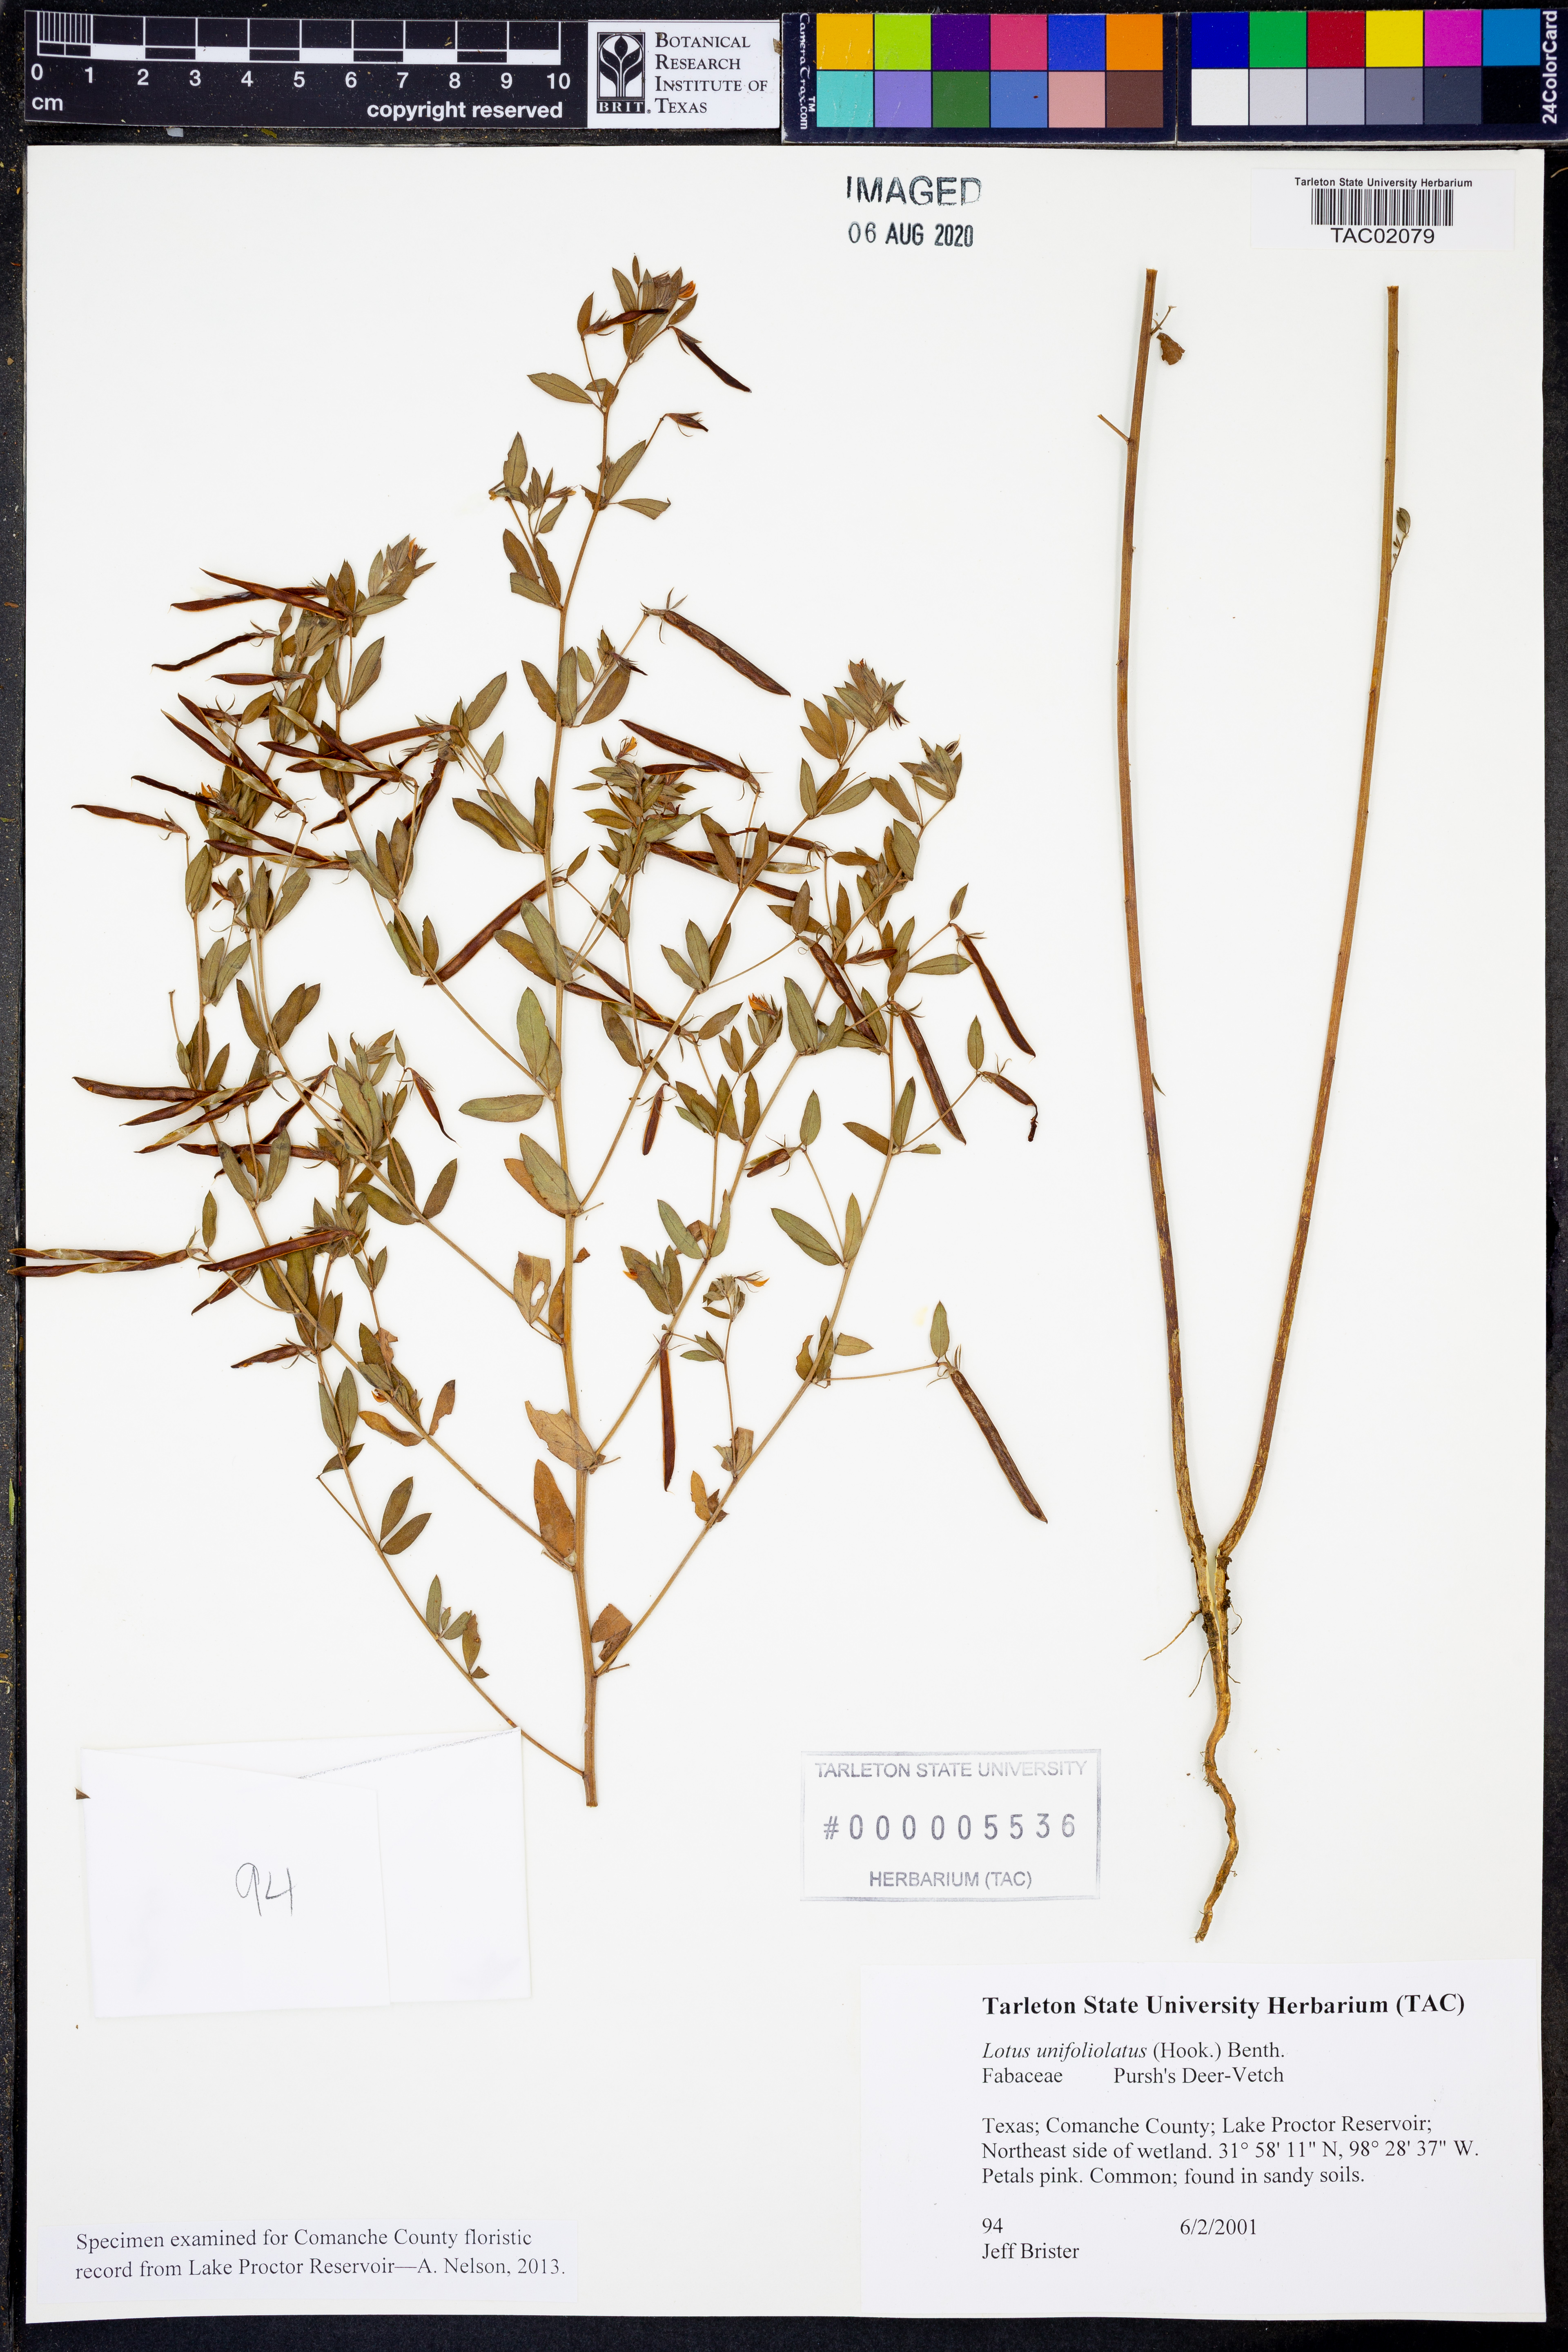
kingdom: Plantae
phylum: Tracheophyta
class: Magnoliopsida
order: Fabales
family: Fabaceae
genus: Acmispon
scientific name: Acmispon americanus
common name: American bird's-foot trefoil
